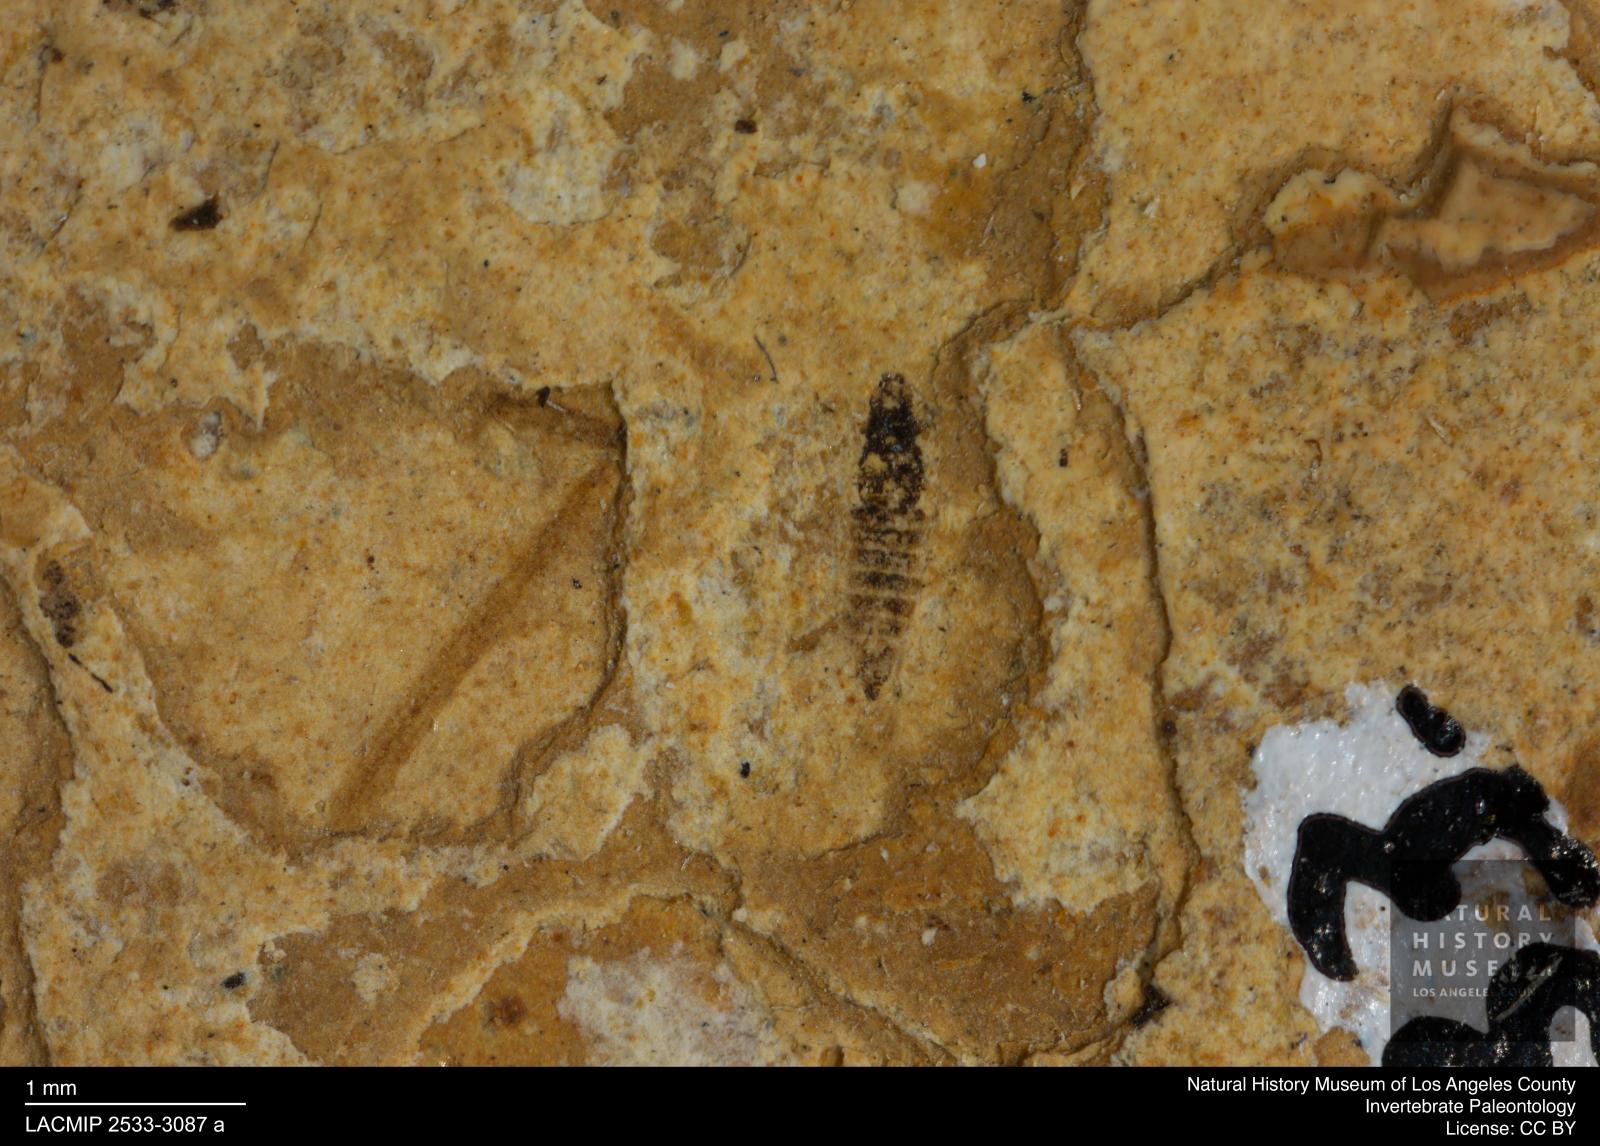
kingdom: Animalia
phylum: Arthropoda
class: Insecta
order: Thysanoptera
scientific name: Thysanoptera
